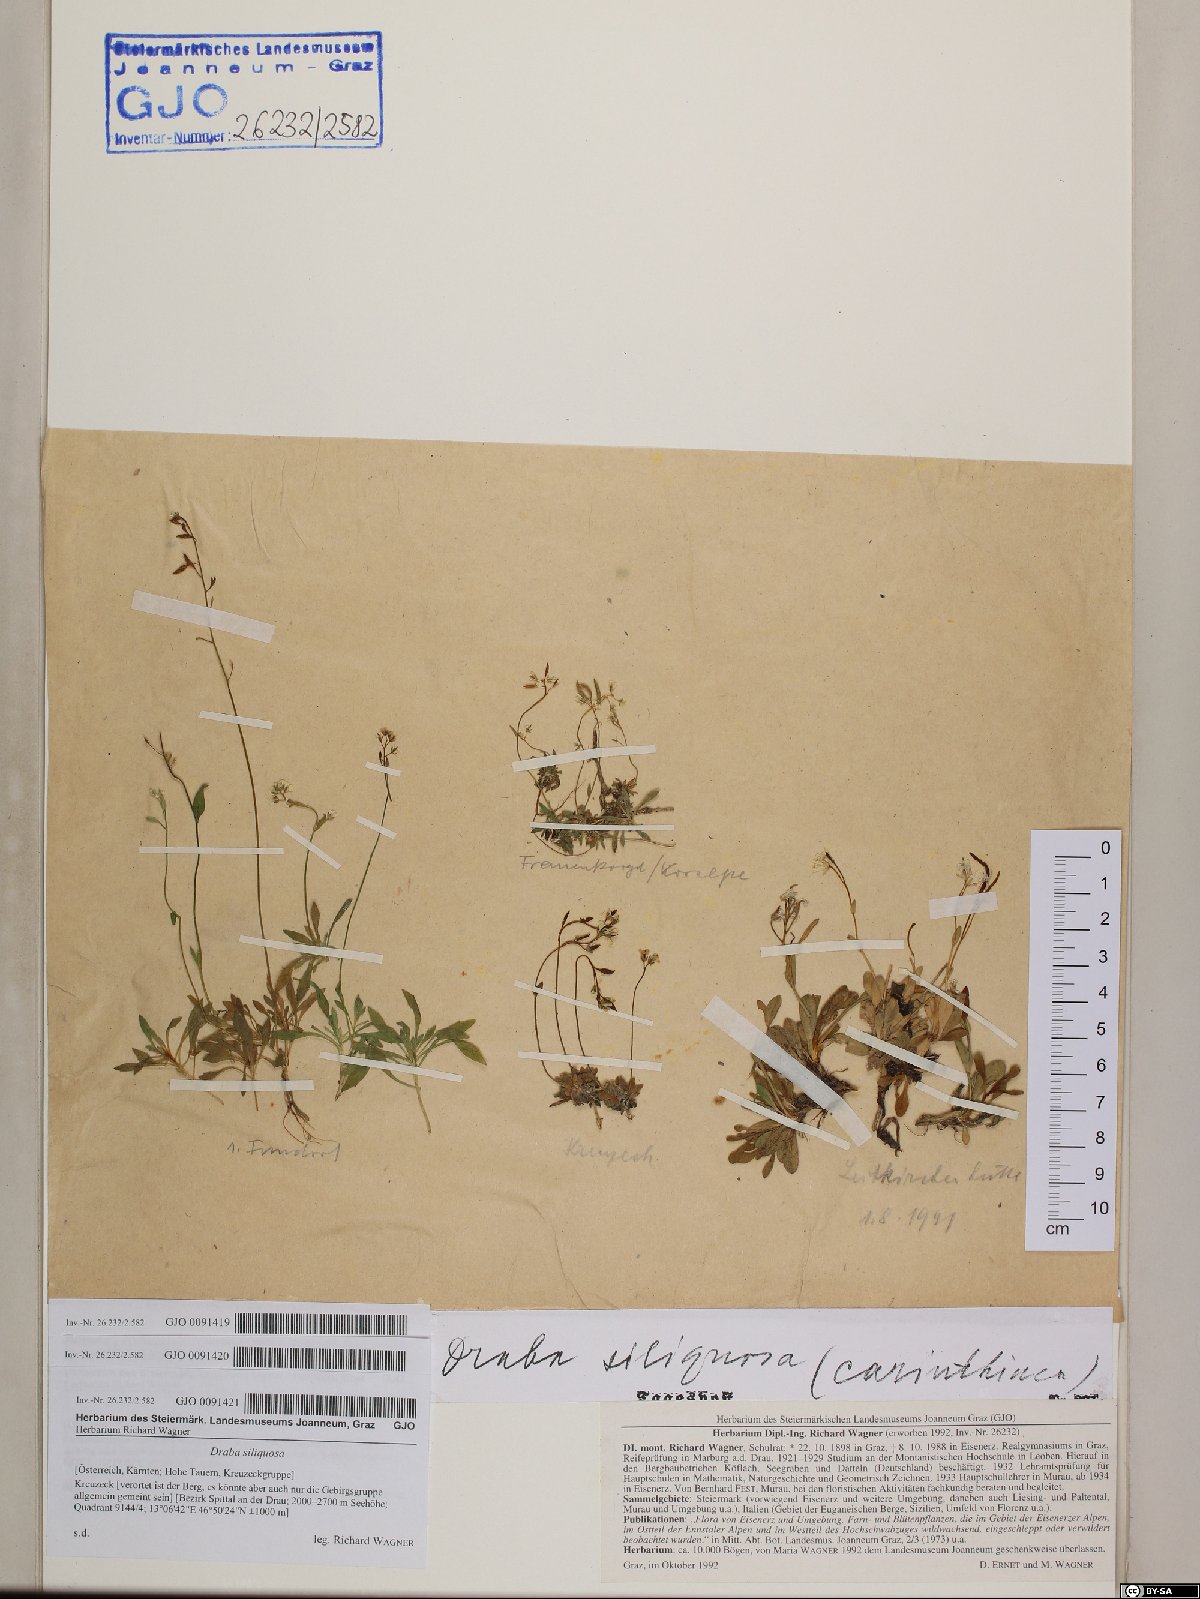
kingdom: Plantae
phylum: Tracheophyta
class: Magnoliopsida
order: Brassicales
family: Brassicaceae
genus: Draba
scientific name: Draba siliquosa
